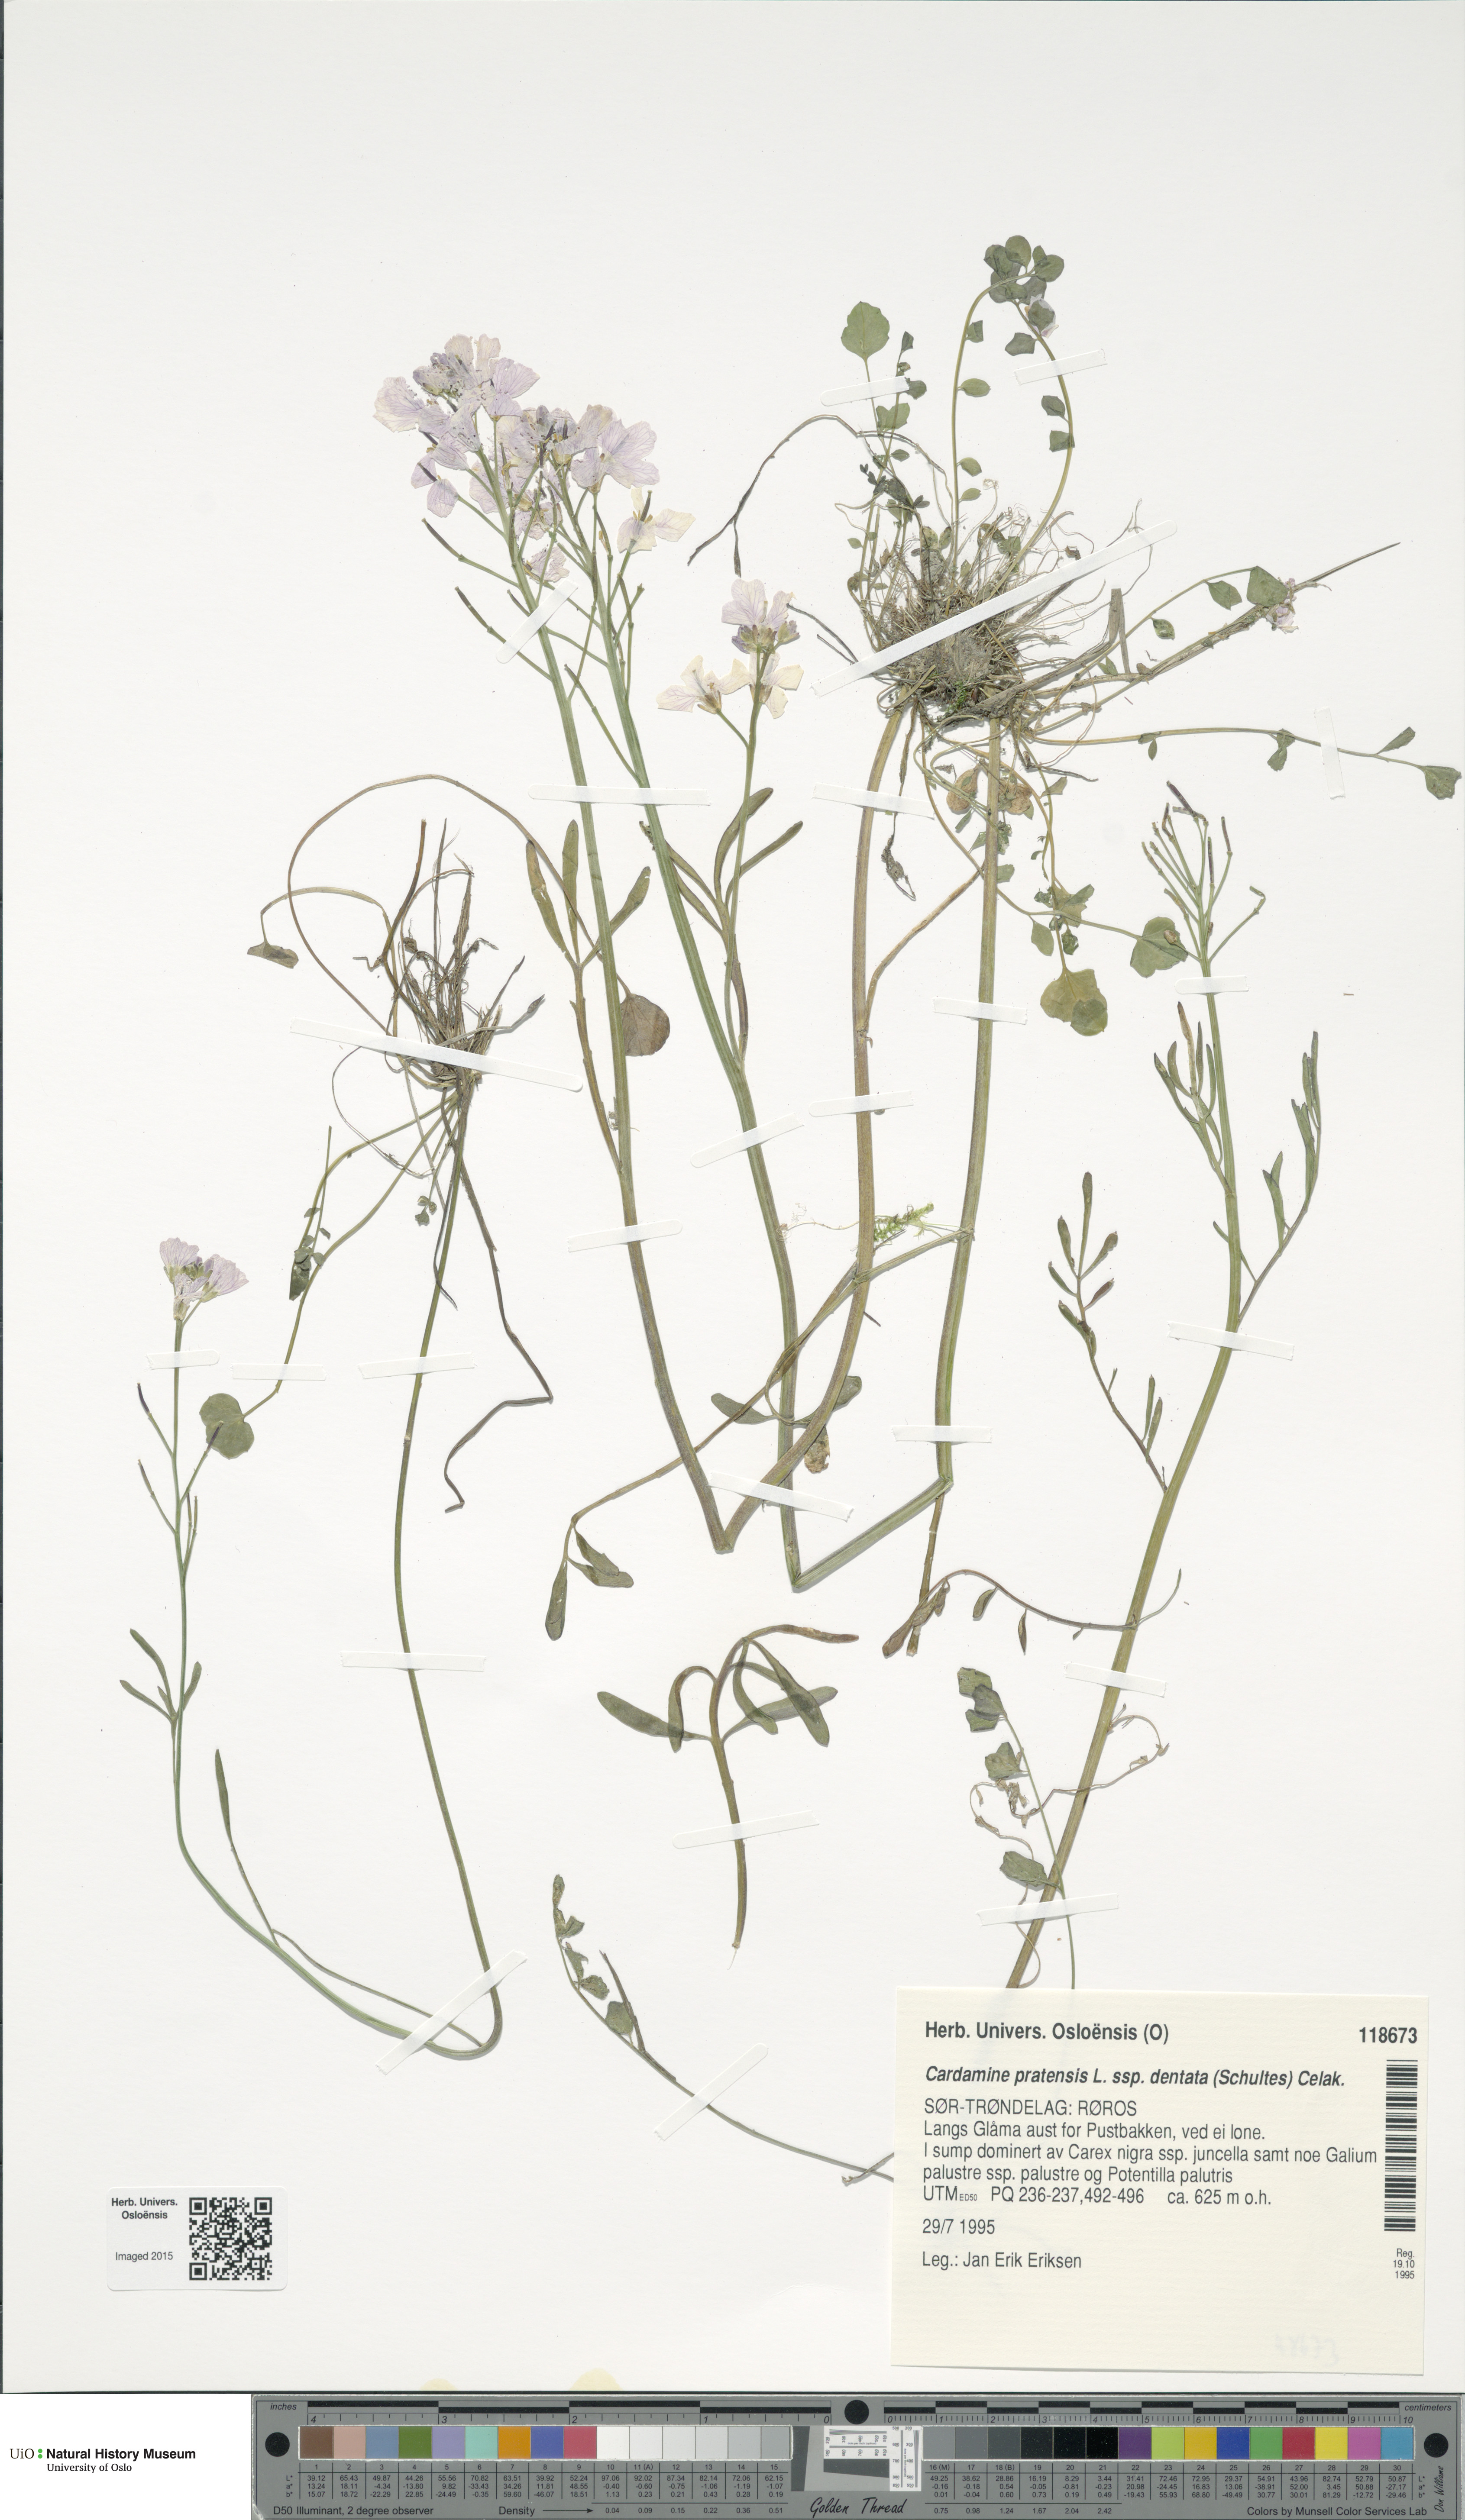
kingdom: Plantae
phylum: Tracheophyta
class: Magnoliopsida
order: Brassicales
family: Brassicaceae
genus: Cardamine
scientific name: Cardamine dentata
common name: Toothed bittercress
